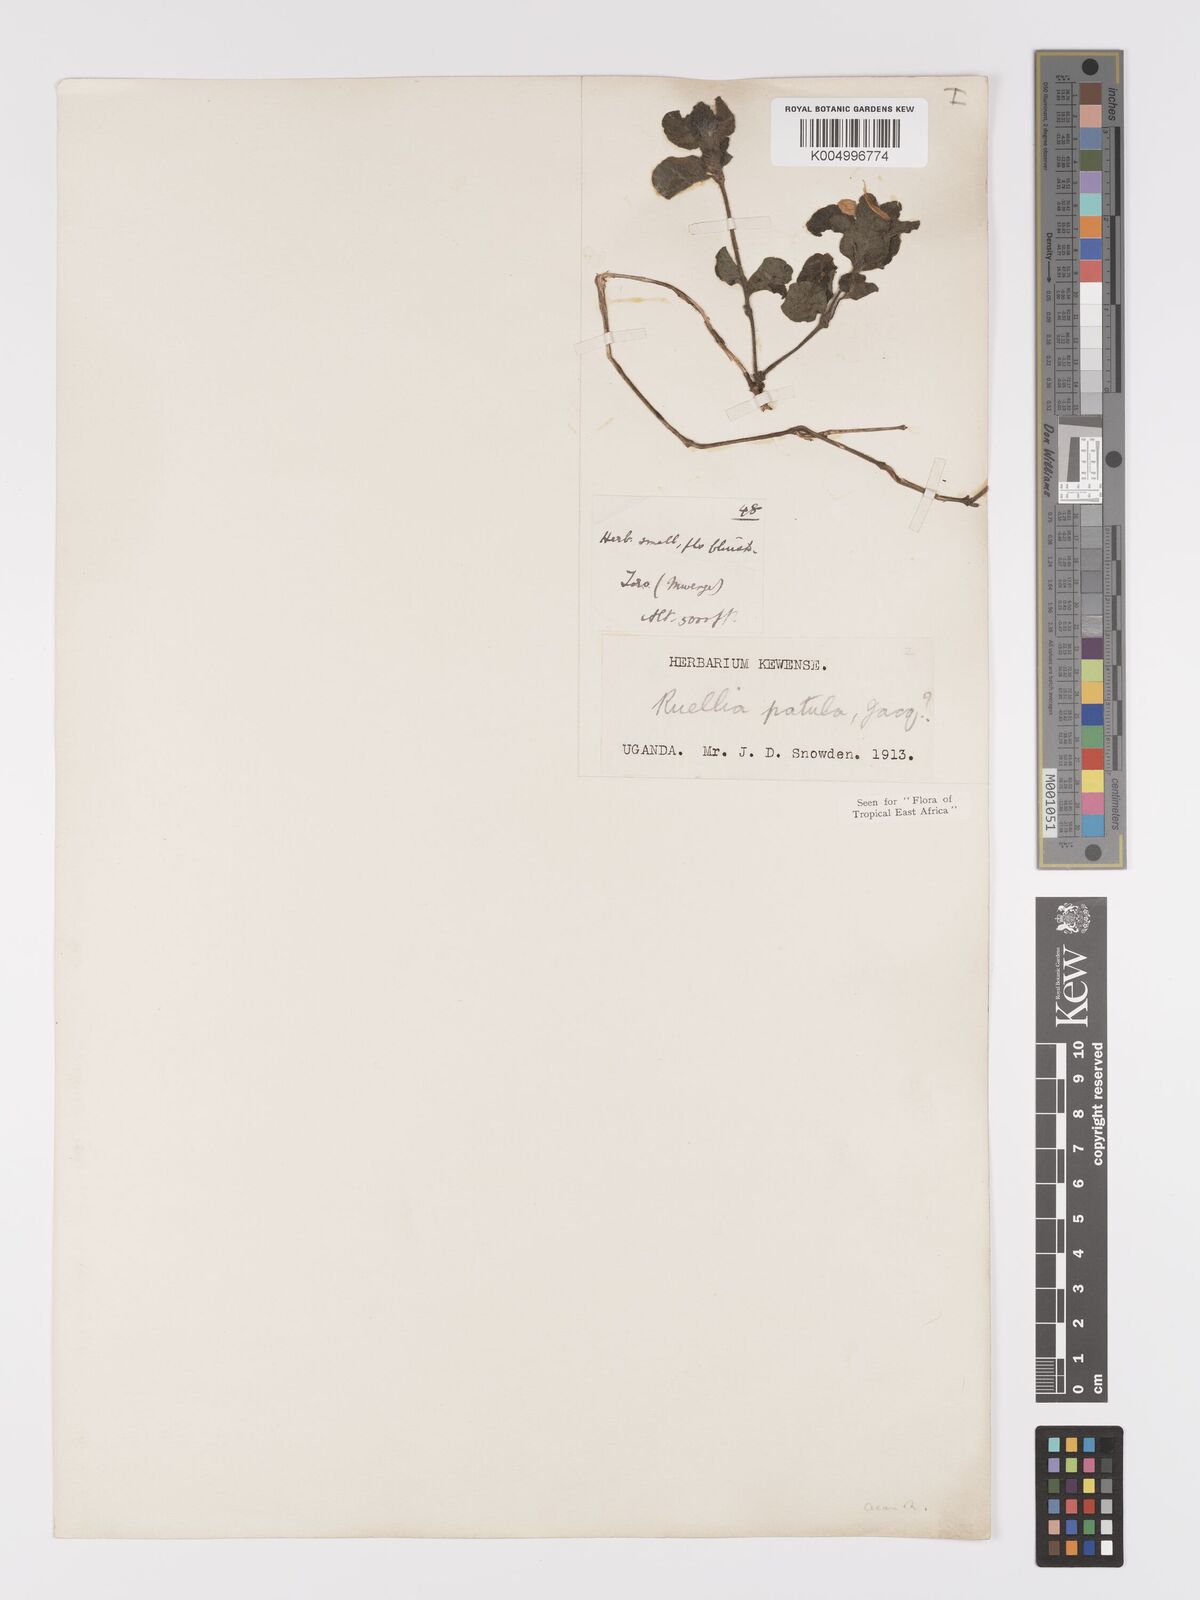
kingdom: Plantae
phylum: Tracheophyta
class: Magnoliopsida
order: Lamiales
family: Acanthaceae
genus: Ruellia
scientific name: Ruellia patula
